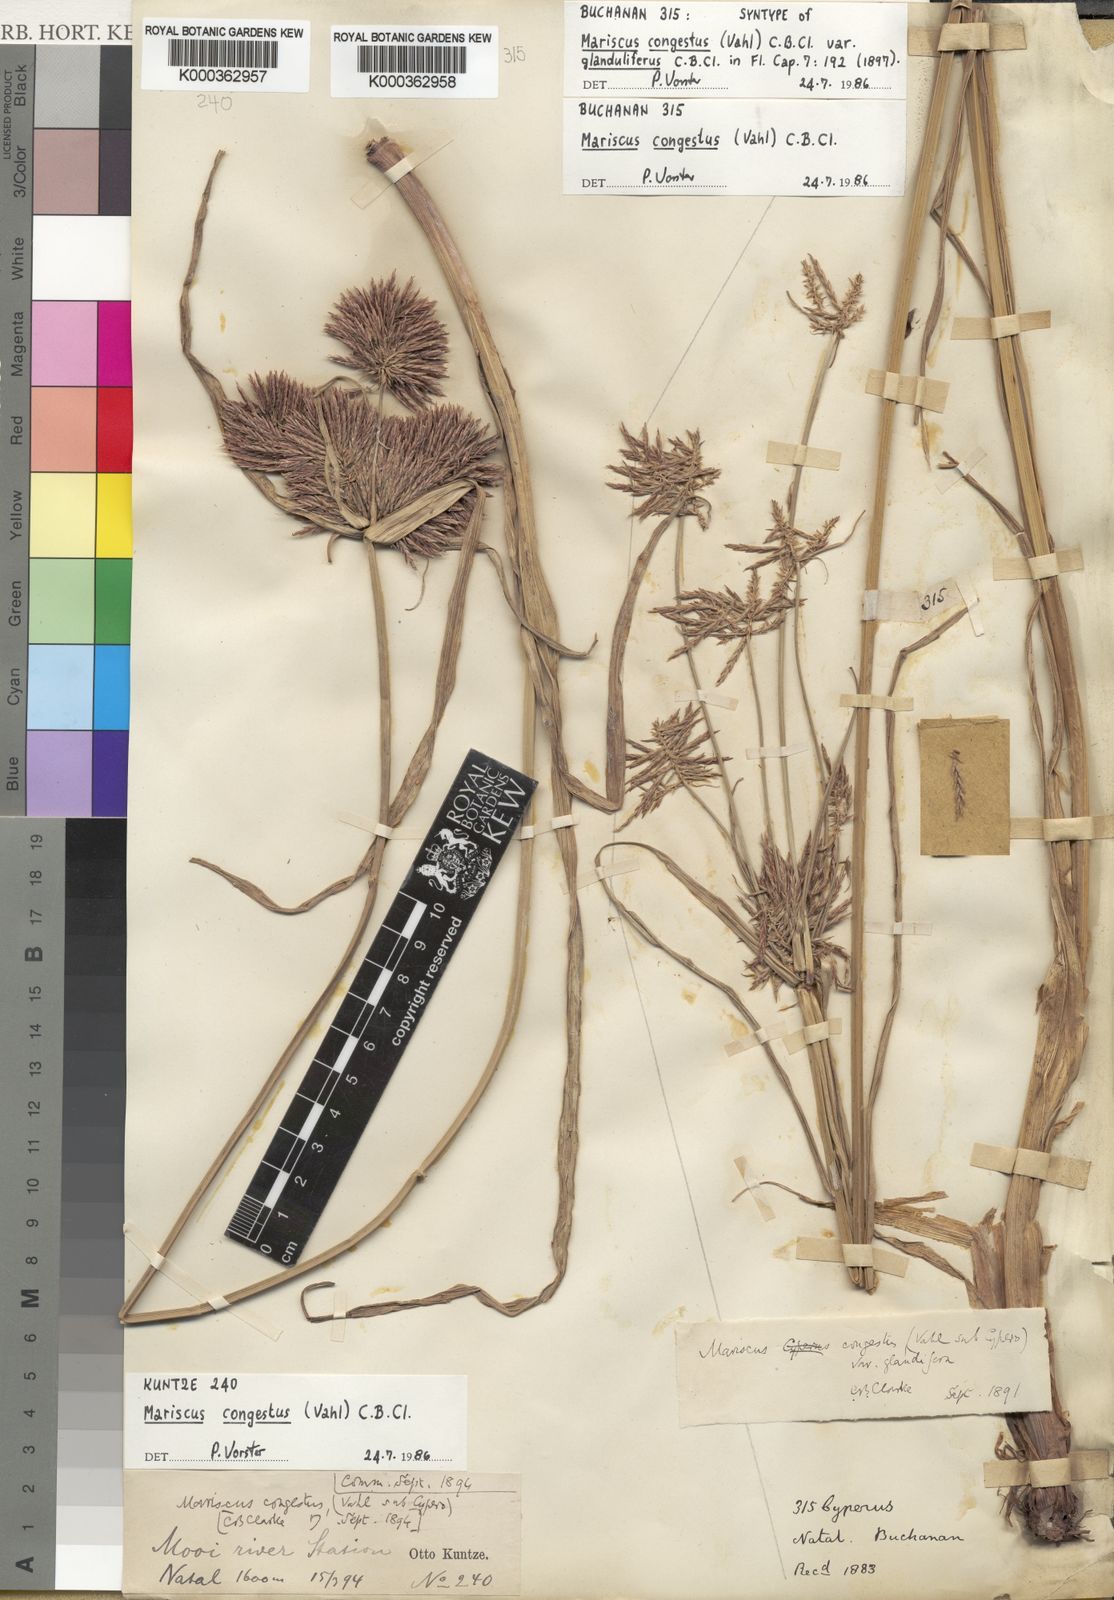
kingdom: Plantae
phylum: Tracheophyta
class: Liliopsida
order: Poales
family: Cyperaceae
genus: Cyperus
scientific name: Cyperus congestus
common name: Dense flat sedge
